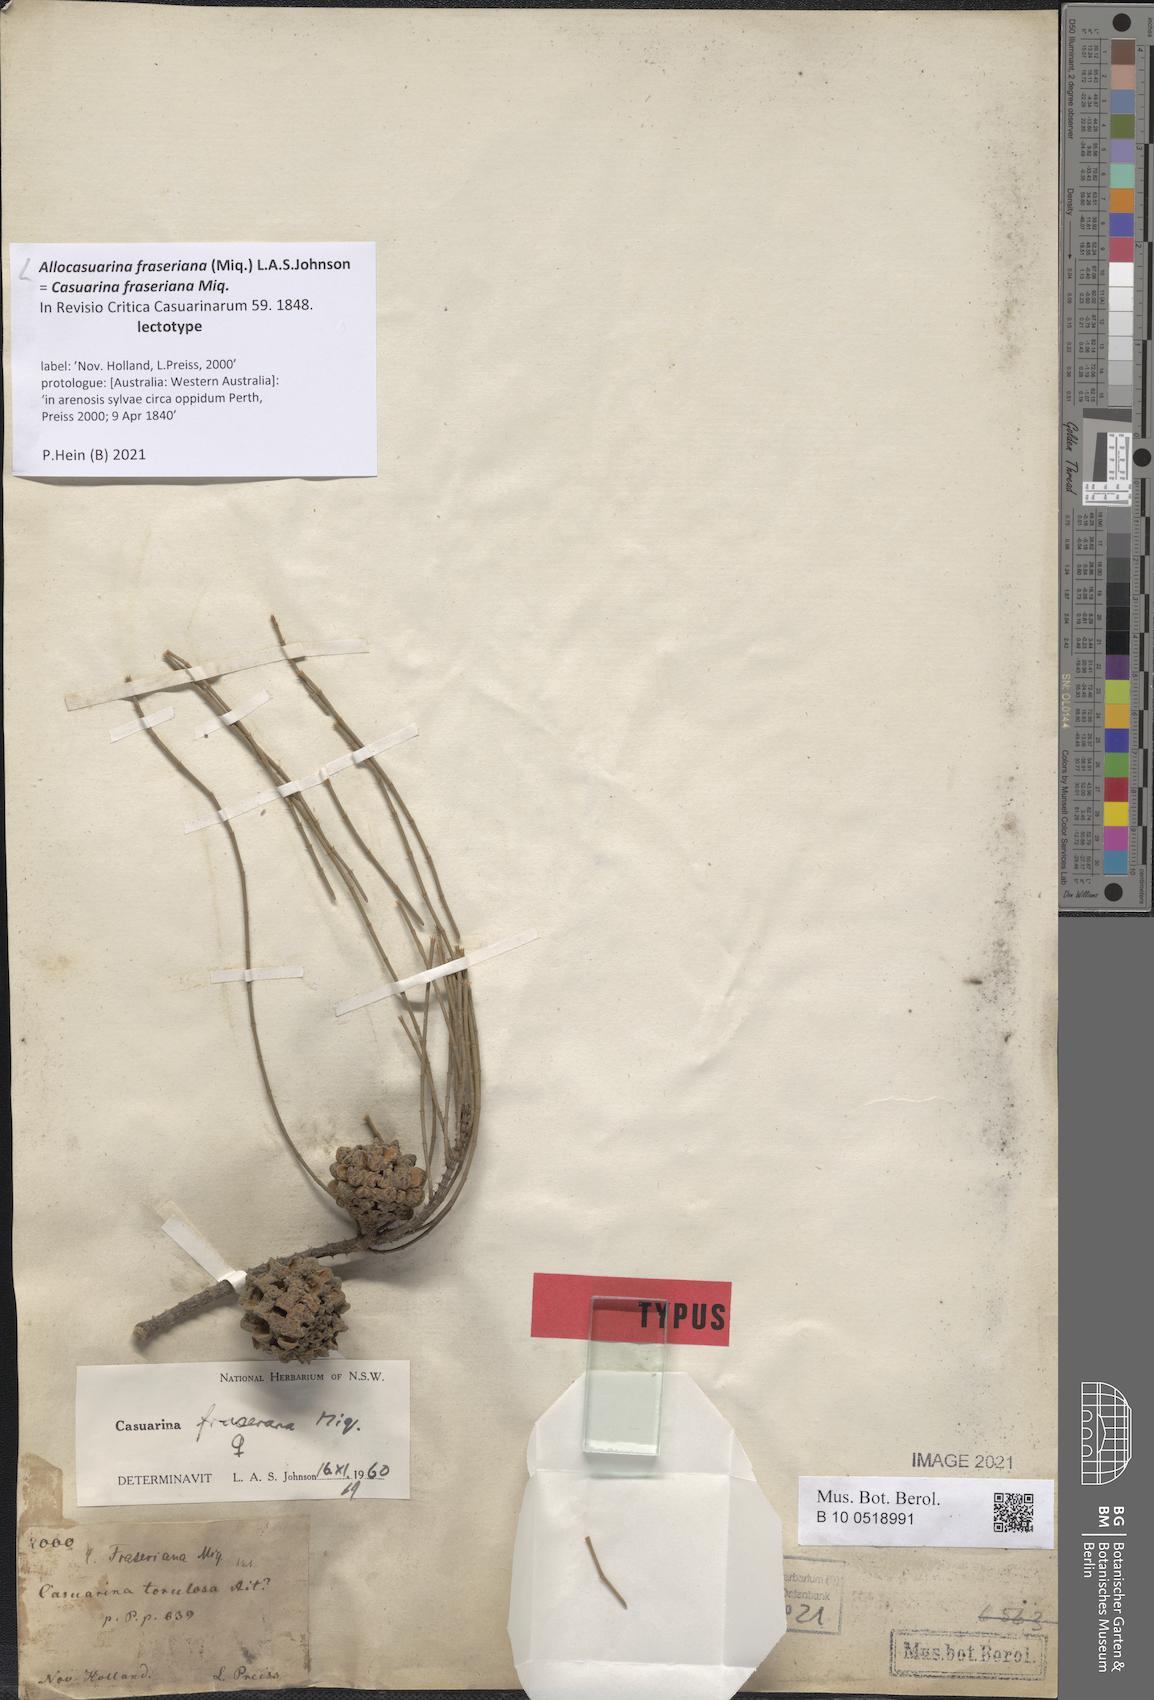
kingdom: Plantae
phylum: Tracheophyta
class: Magnoliopsida
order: Fagales
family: Casuarinaceae
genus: Allocasuarina
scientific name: Allocasuarina fraseriana
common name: Bull-oak
